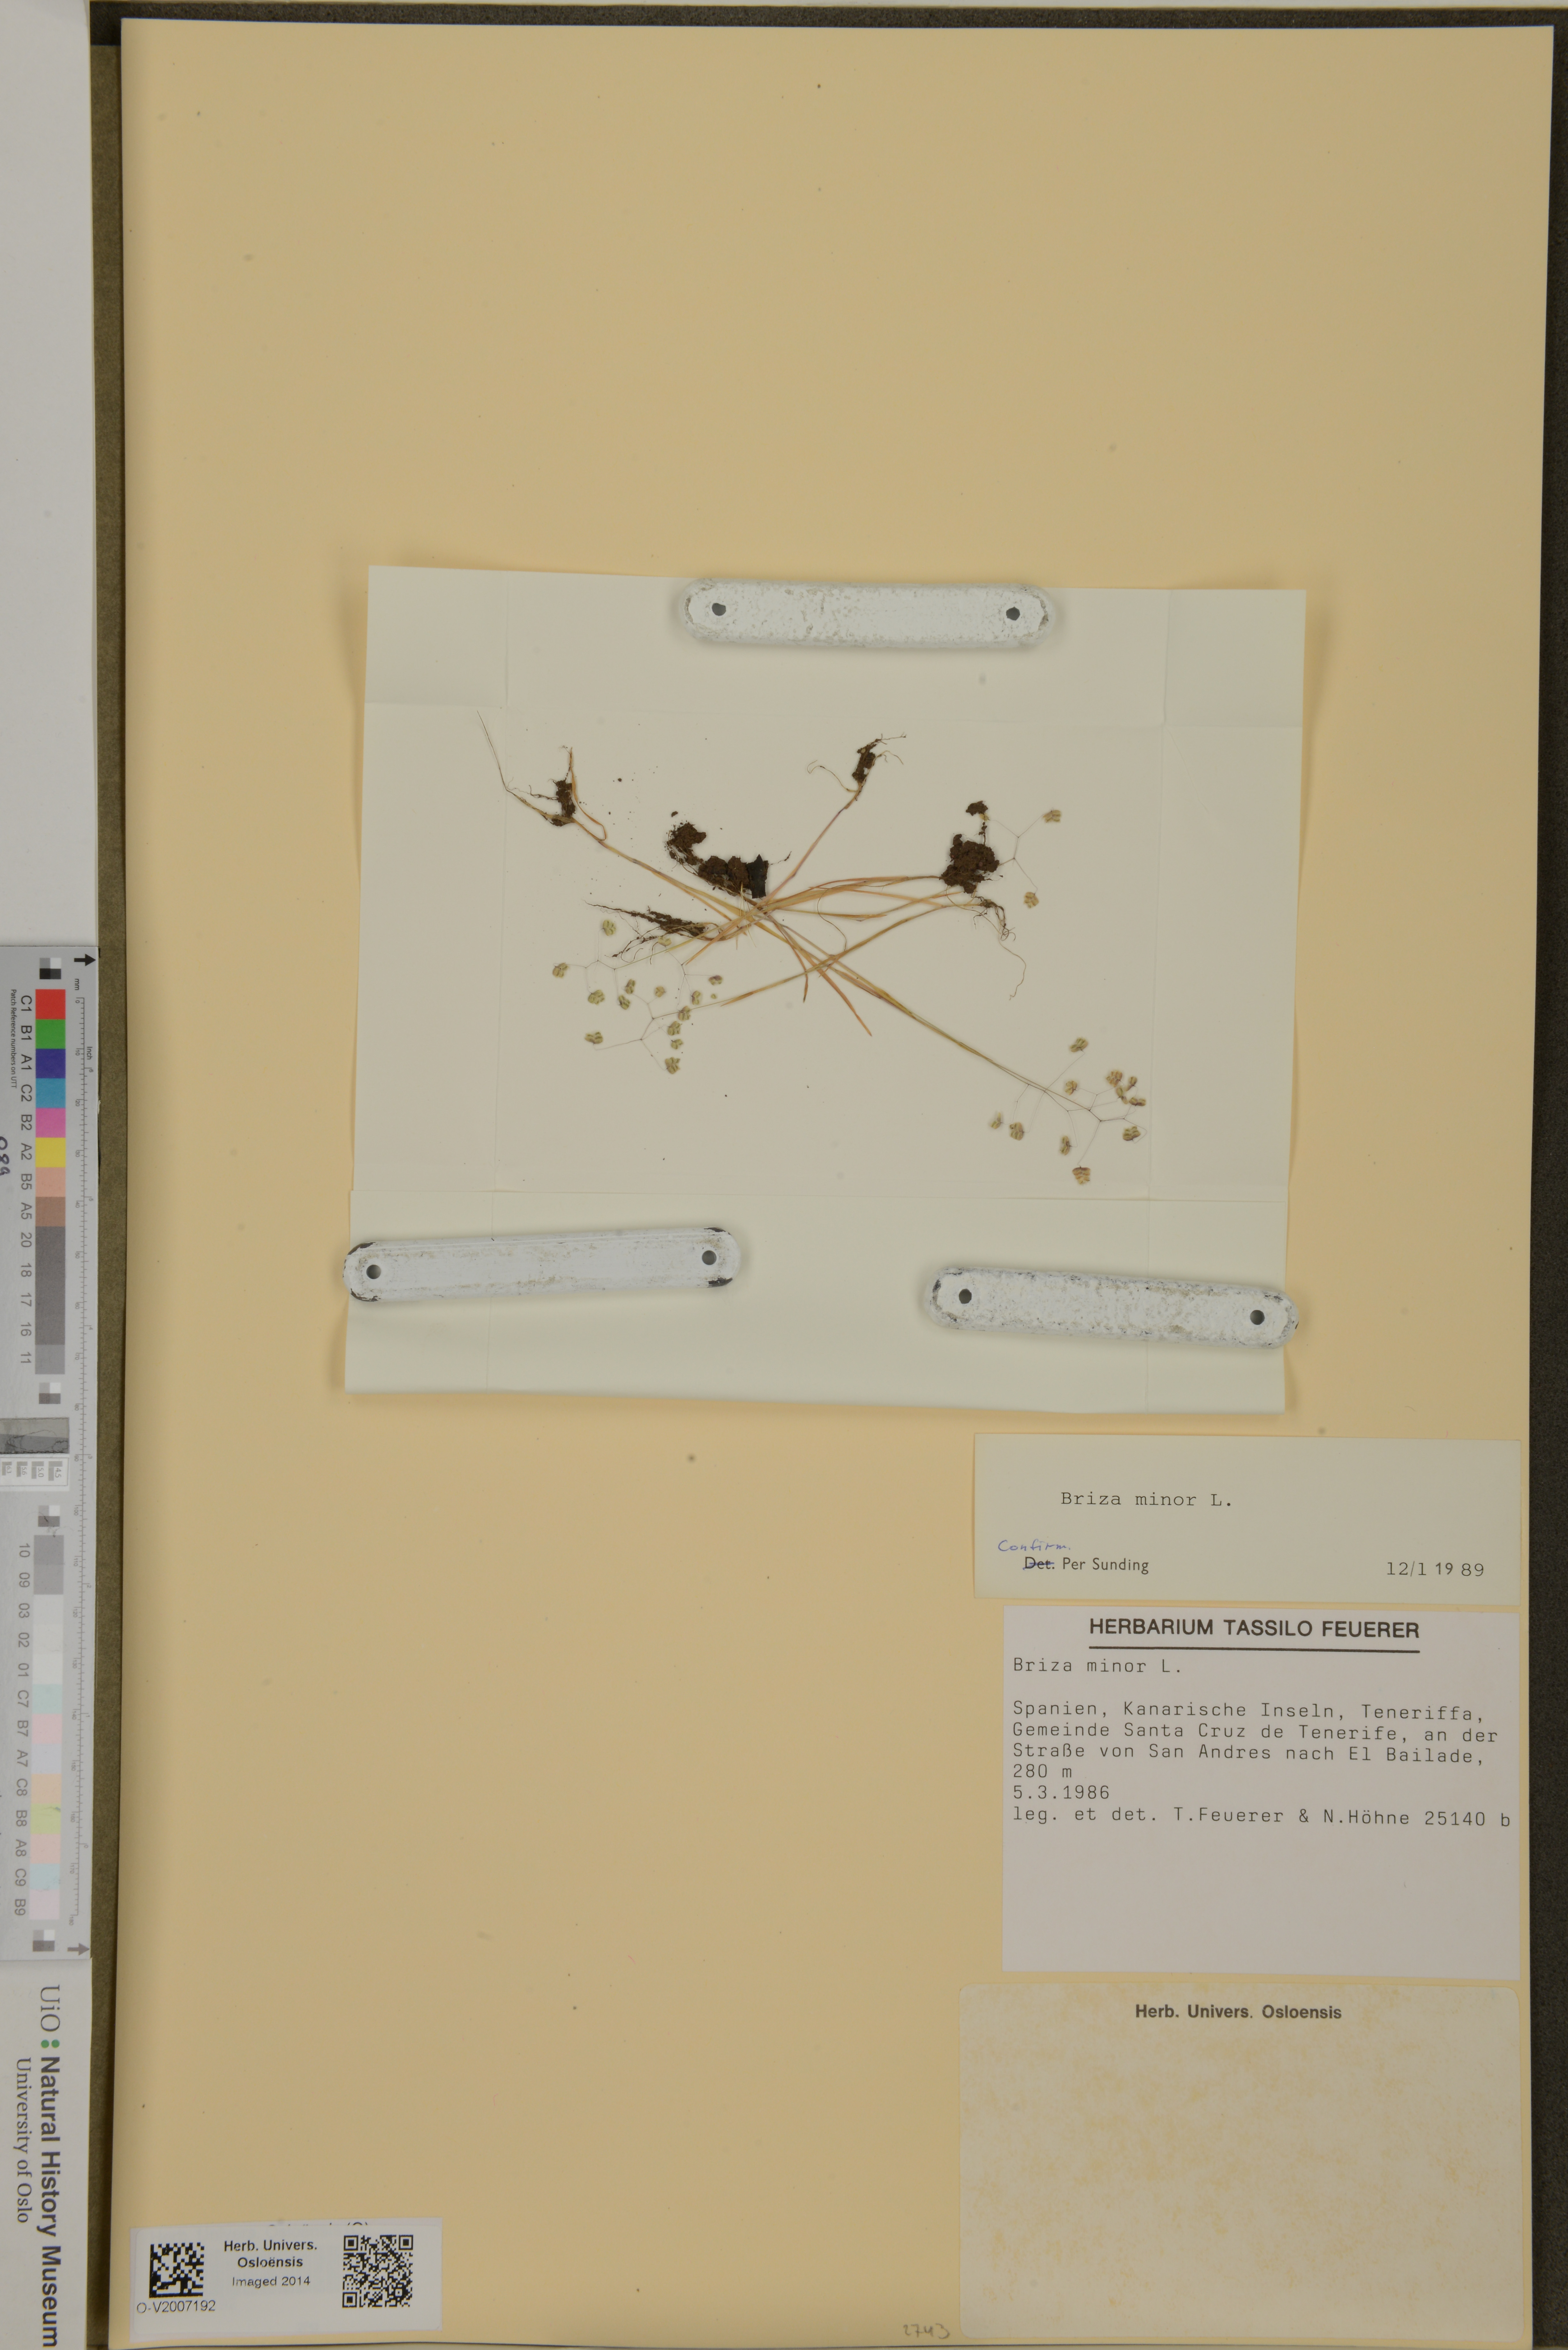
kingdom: Plantae
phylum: Tracheophyta
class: Liliopsida
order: Poales
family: Poaceae
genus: Briza
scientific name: Briza minor
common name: Lesser quaking-grass
